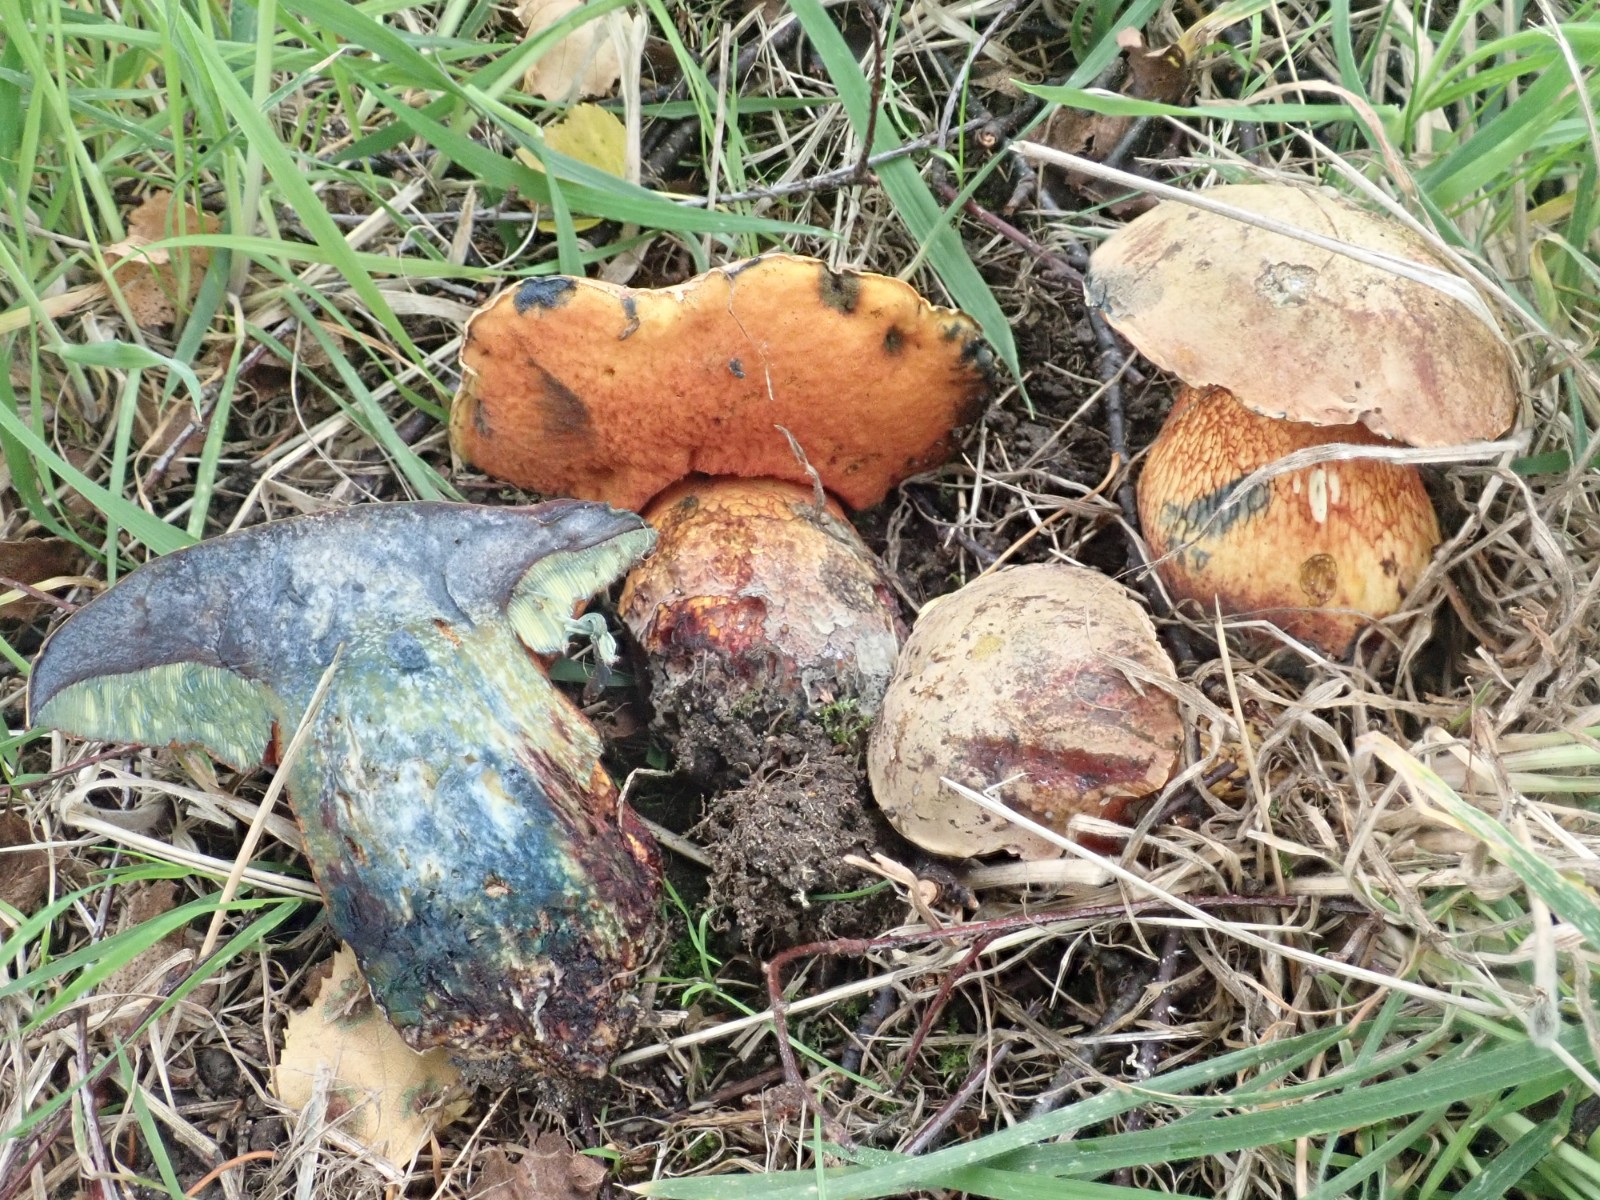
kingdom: Fungi
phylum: Basidiomycota
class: Agaricomycetes
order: Boletales
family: Boletaceae
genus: Suillellus
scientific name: Suillellus luridus
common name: netstokket indigorørhat
